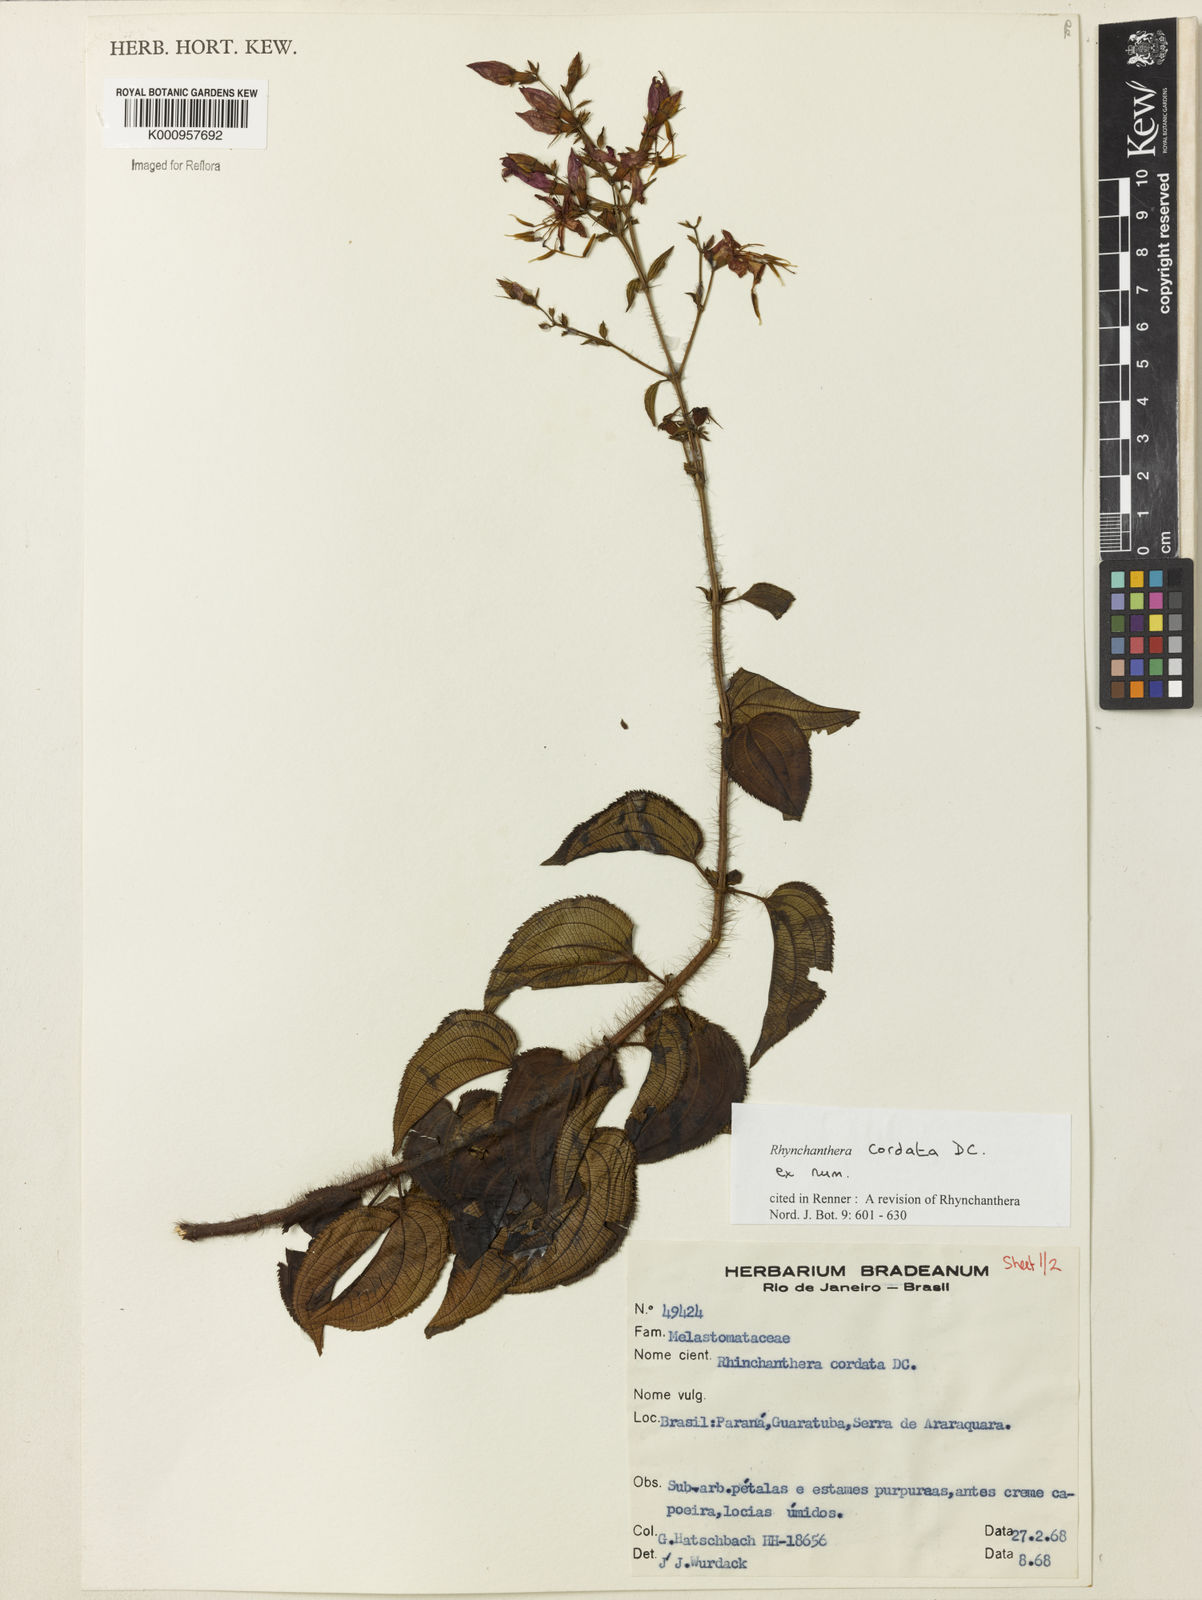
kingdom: Plantae
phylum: Tracheophyta
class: Magnoliopsida
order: Myrtales
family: Melastomataceae
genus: Rhynchanthera
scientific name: Rhynchanthera cordata
